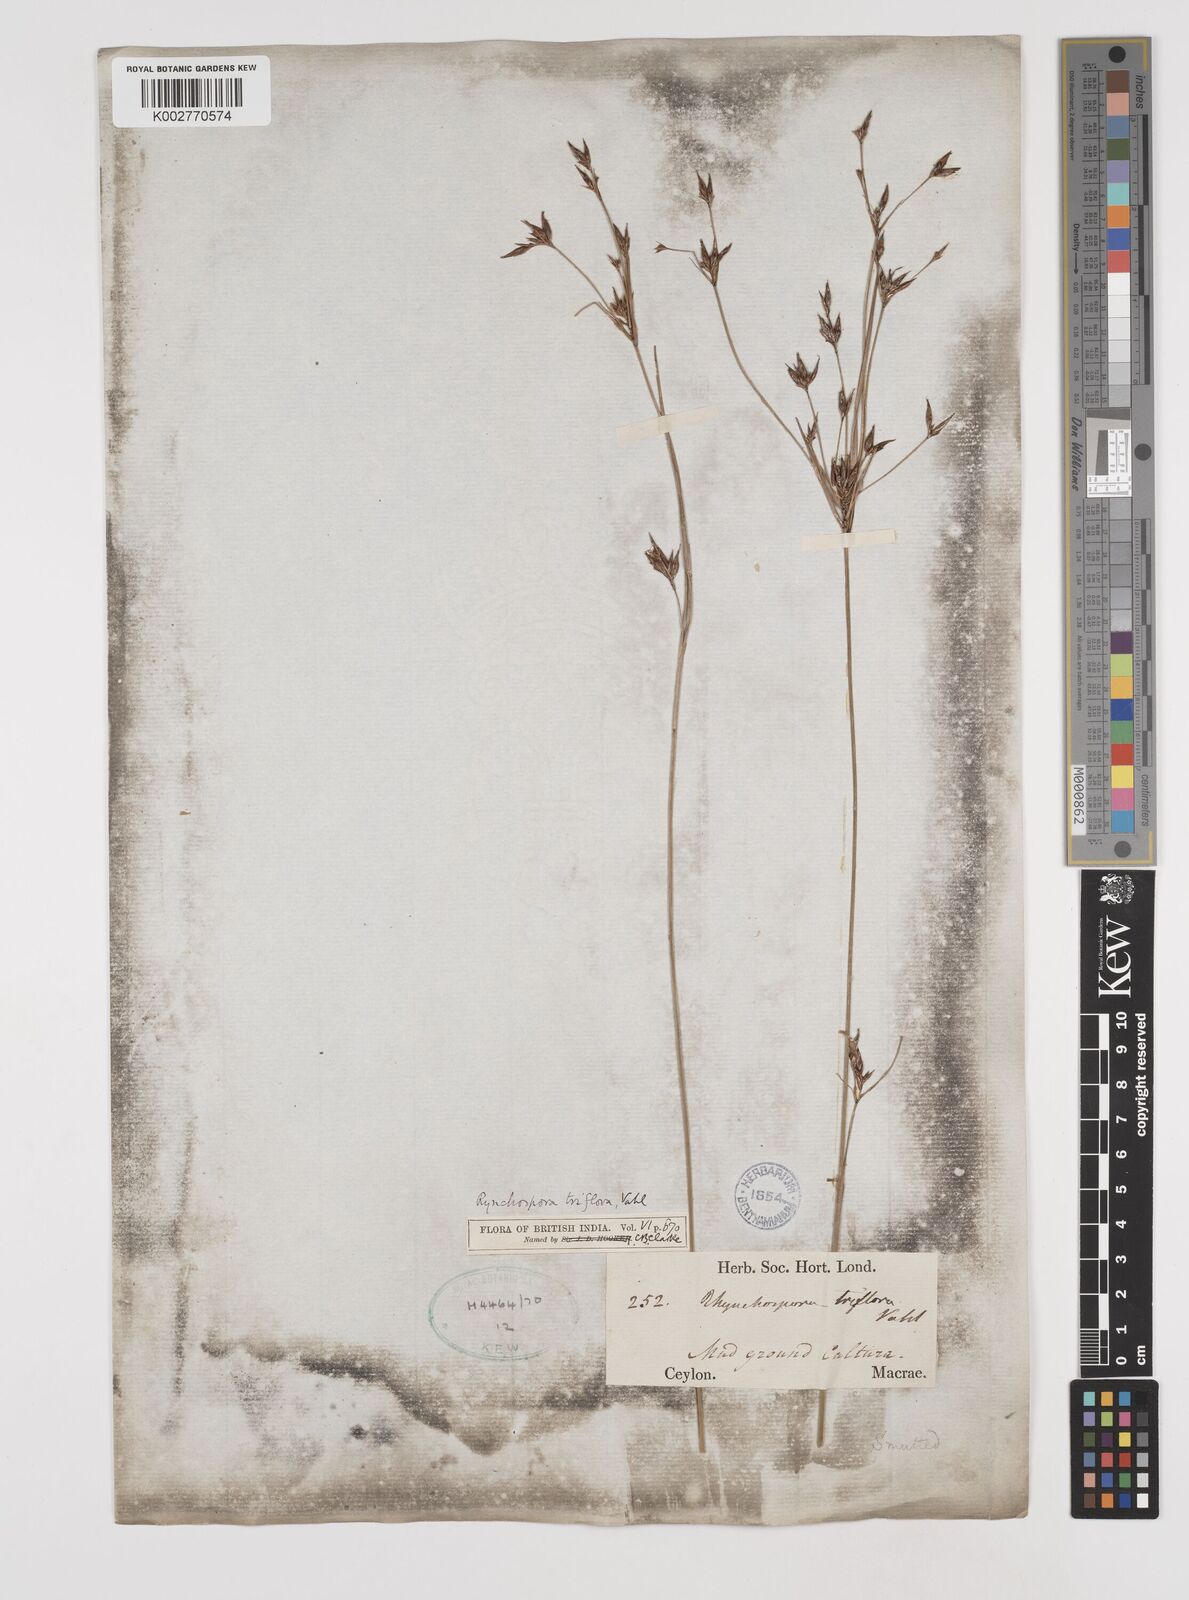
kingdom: Plantae
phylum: Tracheophyta
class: Liliopsida
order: Poales
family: Cyperaceae
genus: Rhynchospora
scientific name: Rhynchospora triflora
